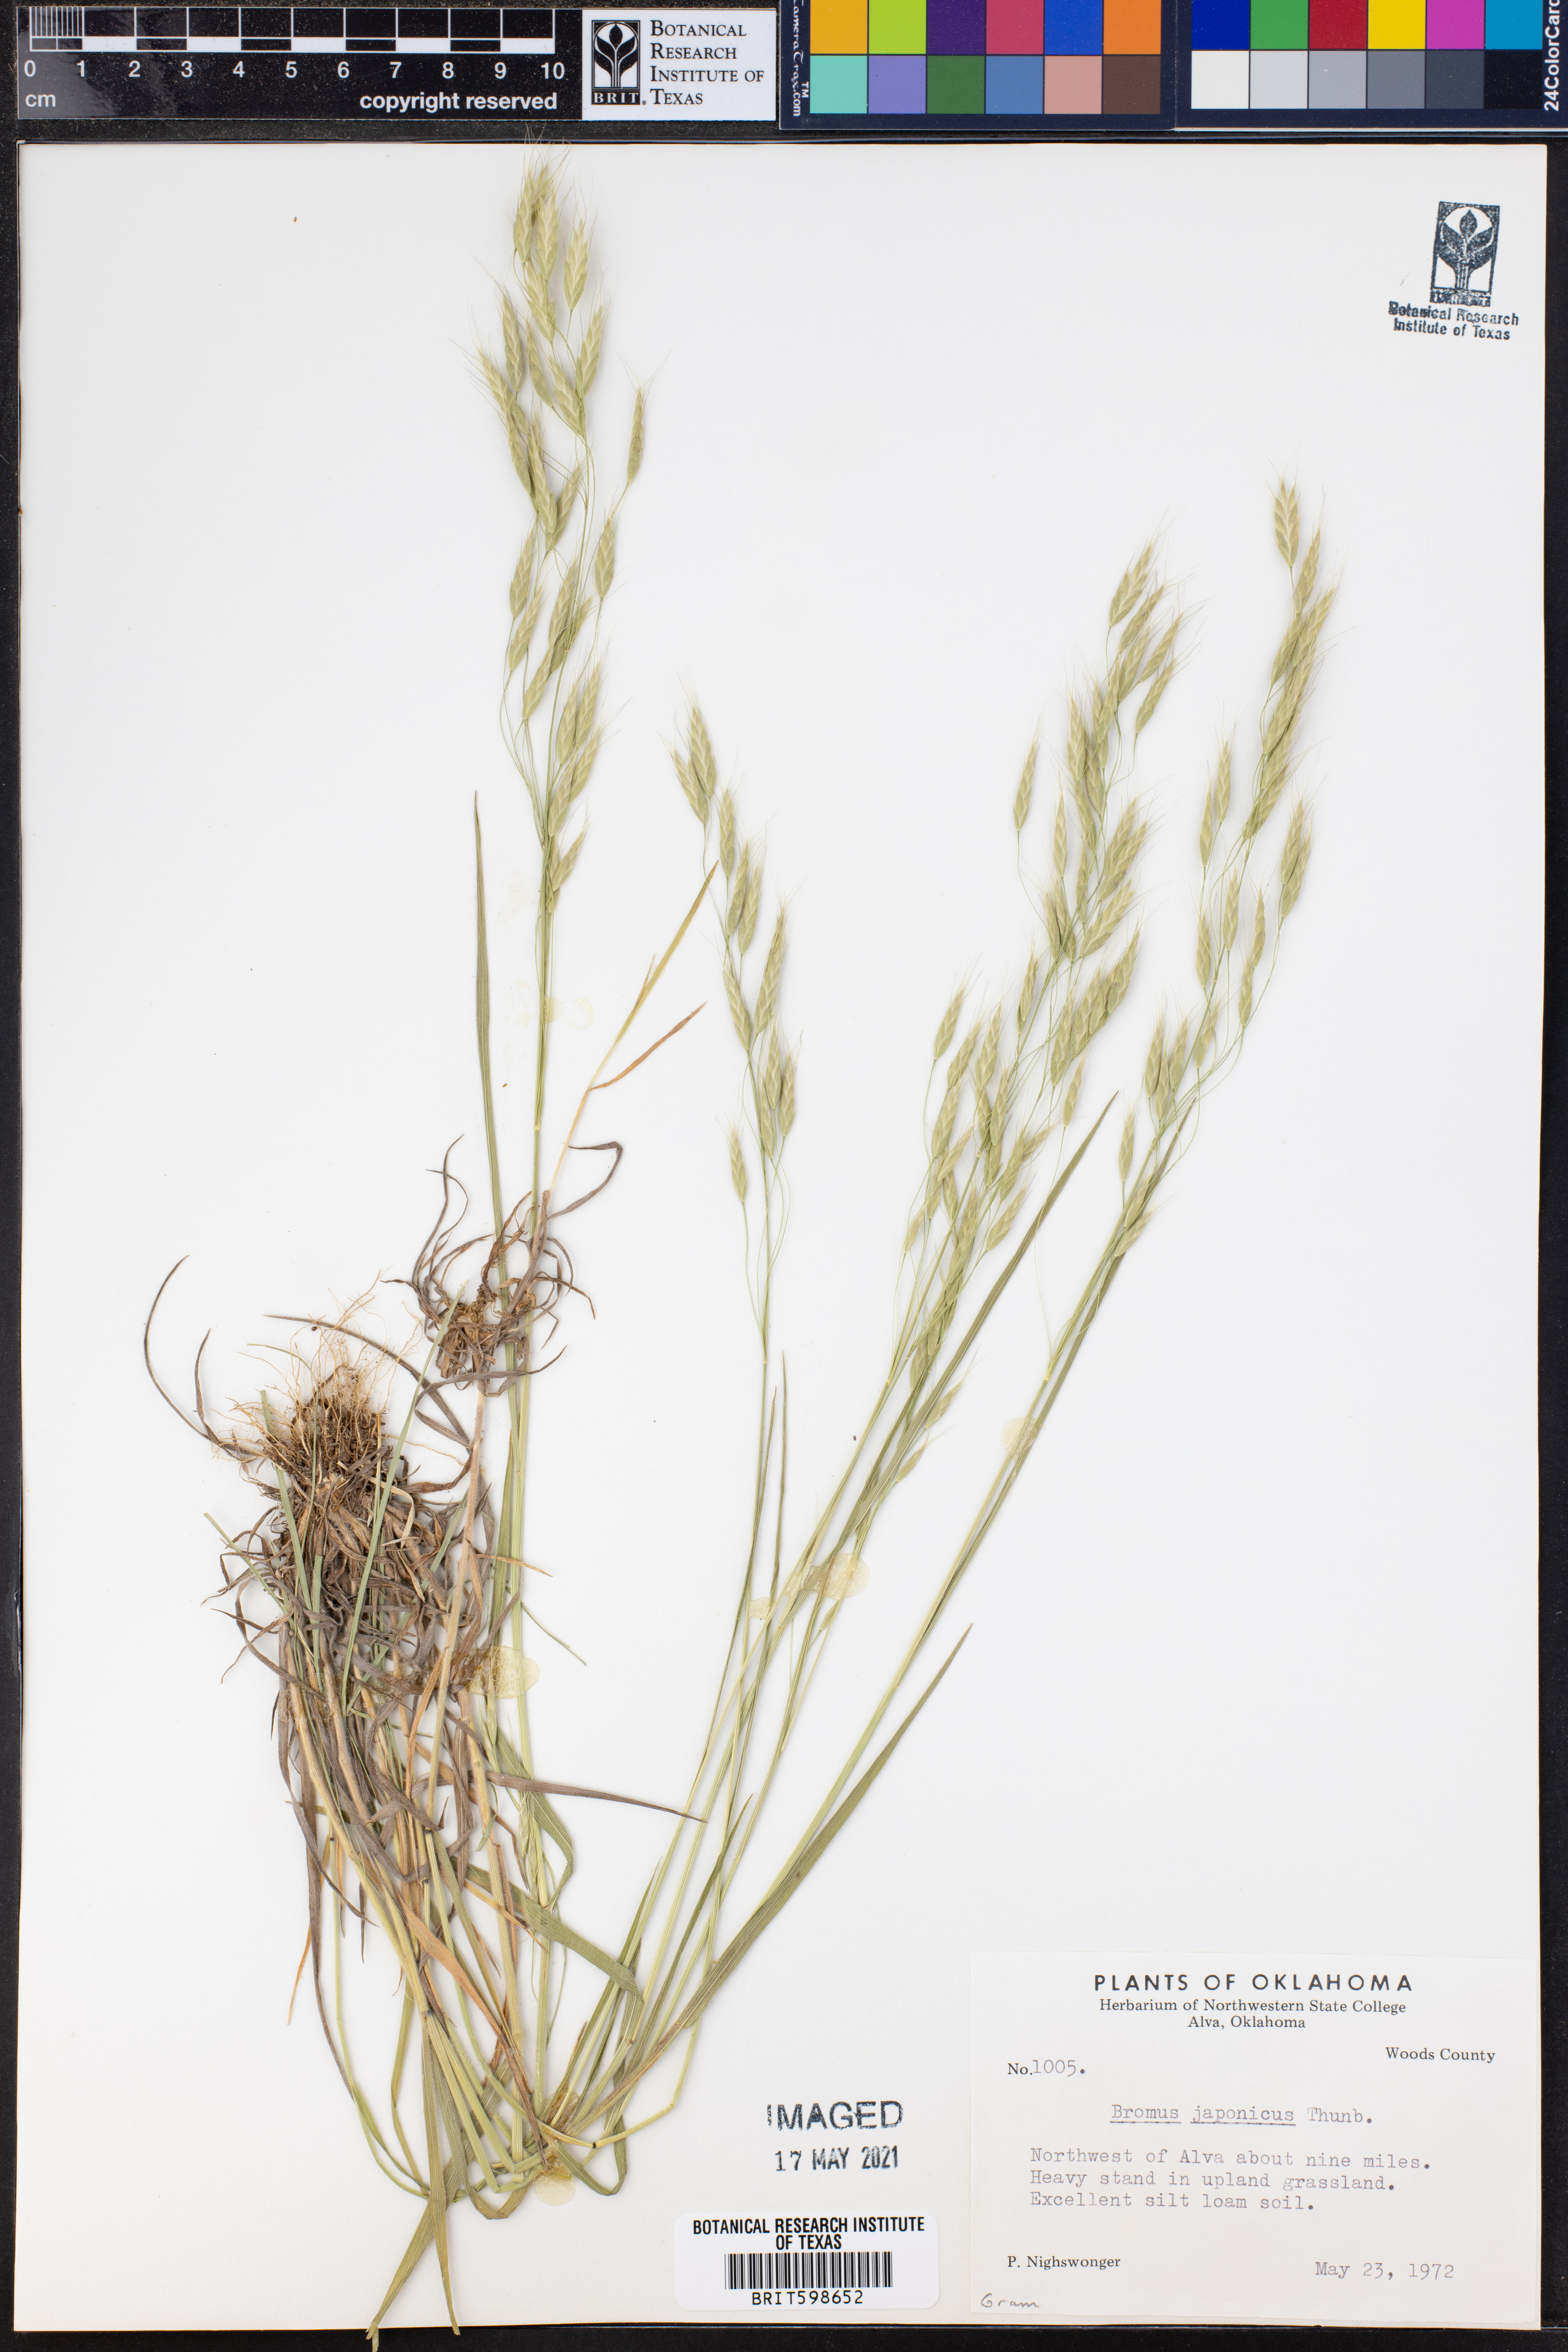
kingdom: Plantae
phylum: Tracheophyta
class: Liliopsida
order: Poales
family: Poaceae
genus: Bromus
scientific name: Bromus japonicus
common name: Japanese brome
